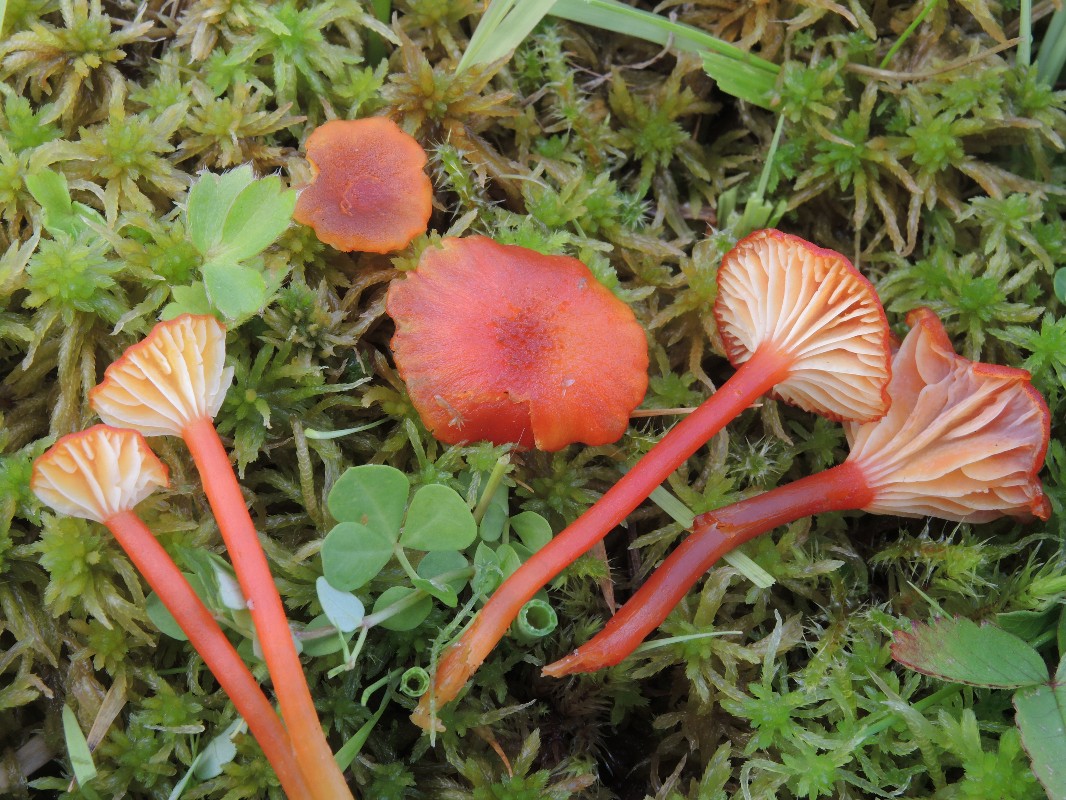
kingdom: Fungi
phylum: Basidiomycota
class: Agaricomycetes
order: Agaricales
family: Hygrophoraceae
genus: Hygrocybe
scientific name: Hygrocybe coccineocrenata
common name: tørvemos-vokshat
